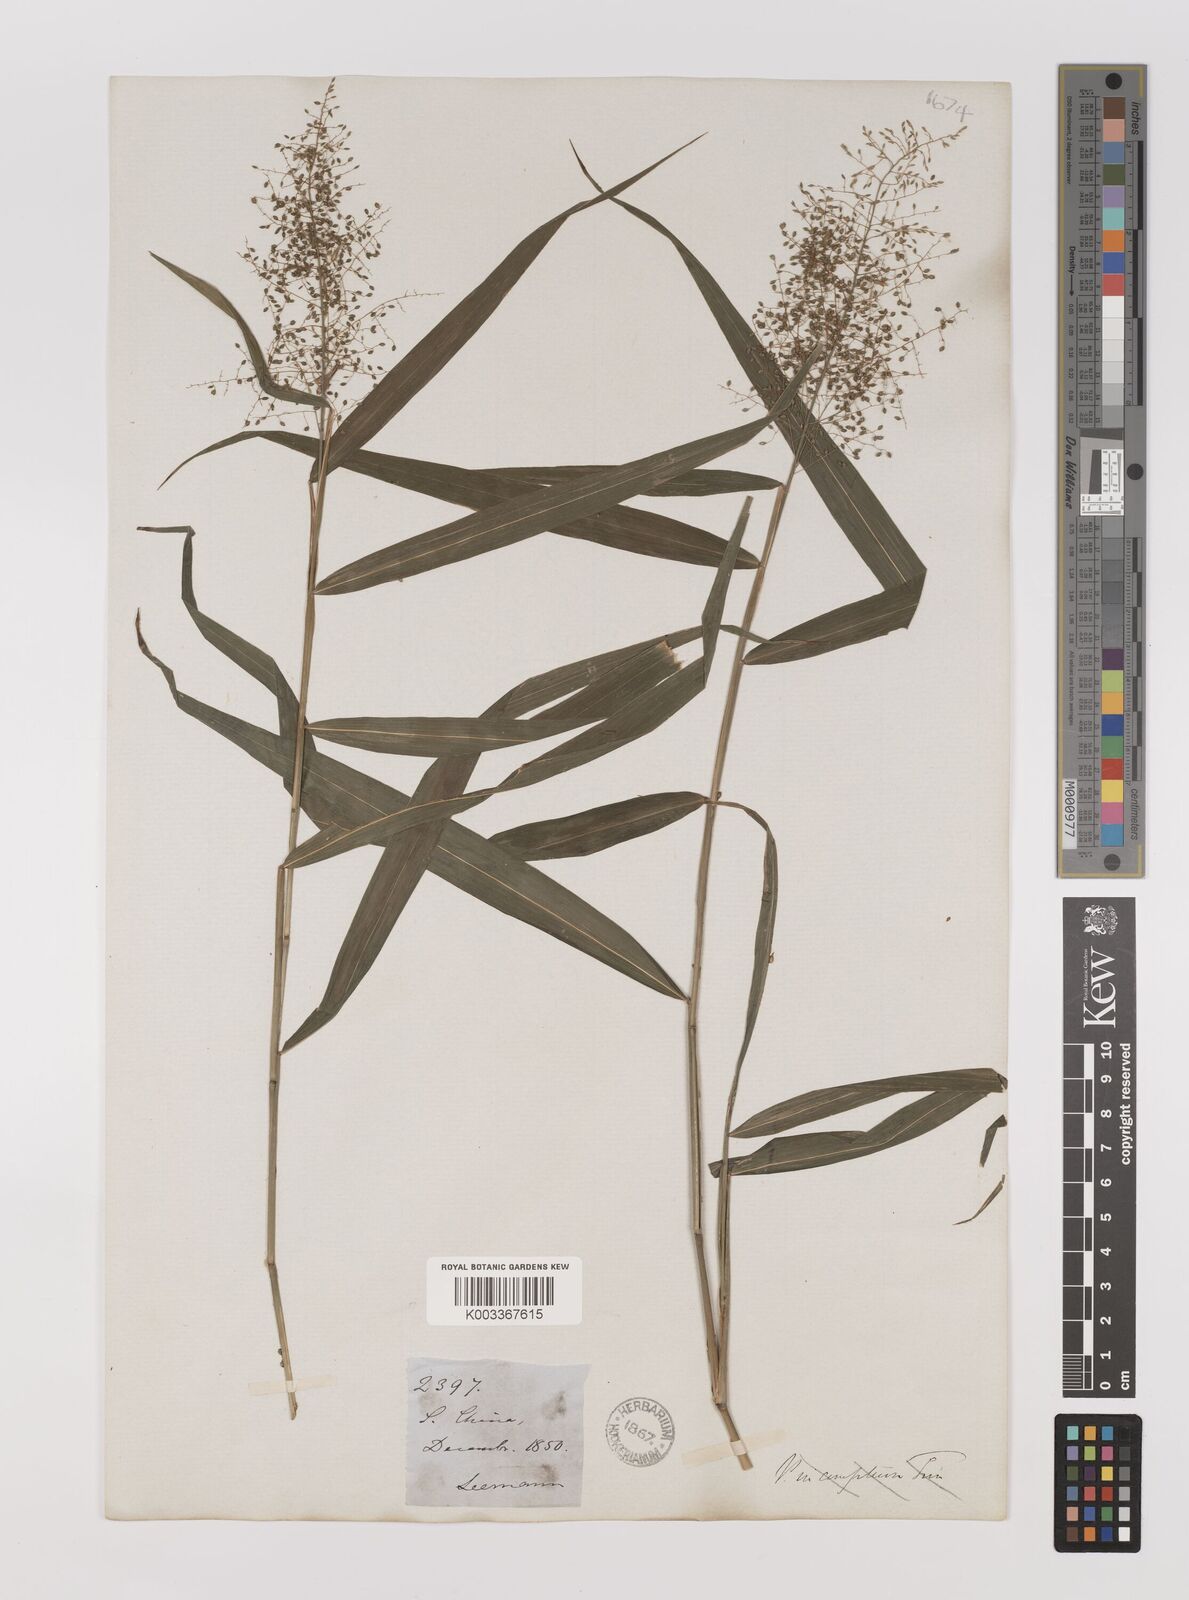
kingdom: Plantae
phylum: Tracheophyta
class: Liliopsida
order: Poales
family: Poaceae
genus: Panicum
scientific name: Panicum incomtum
